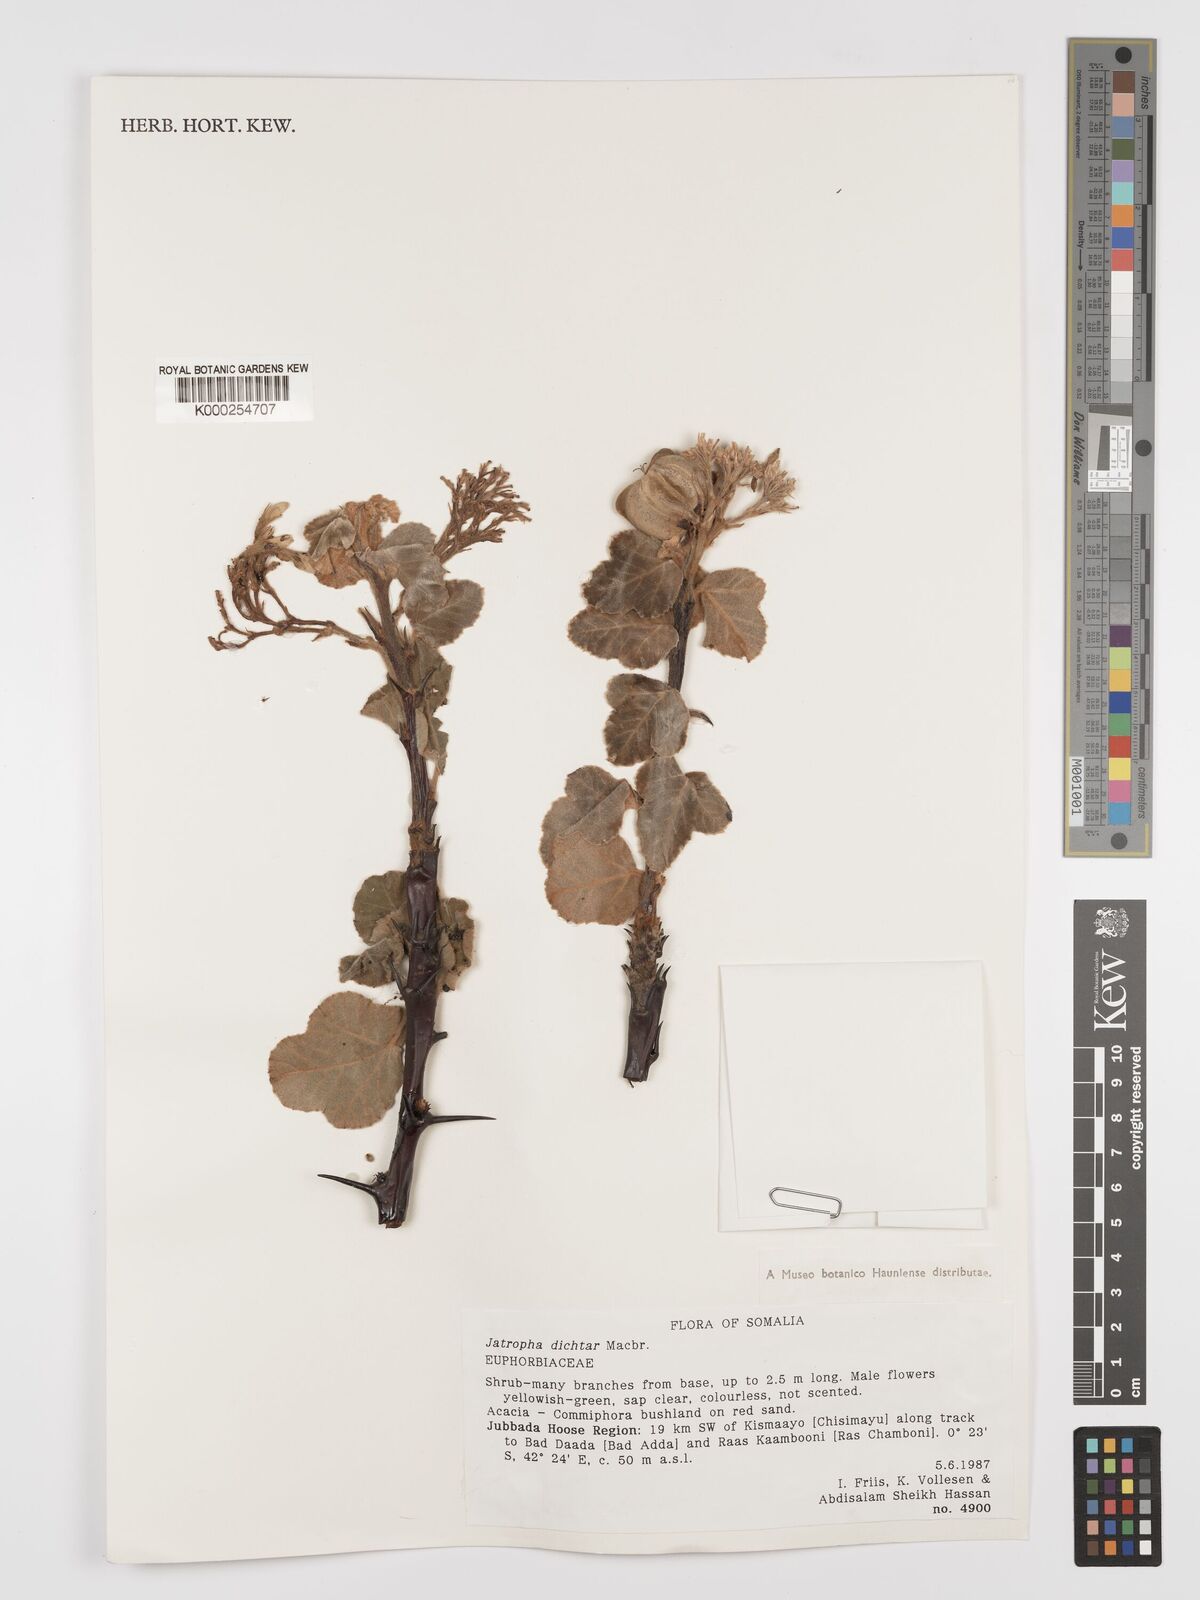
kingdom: Plantae
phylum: Tracheophyta
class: Magnoliopsida
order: Malpighiales
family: Euphorbiaceae
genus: Jatropha
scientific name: Jatropha dichtar
